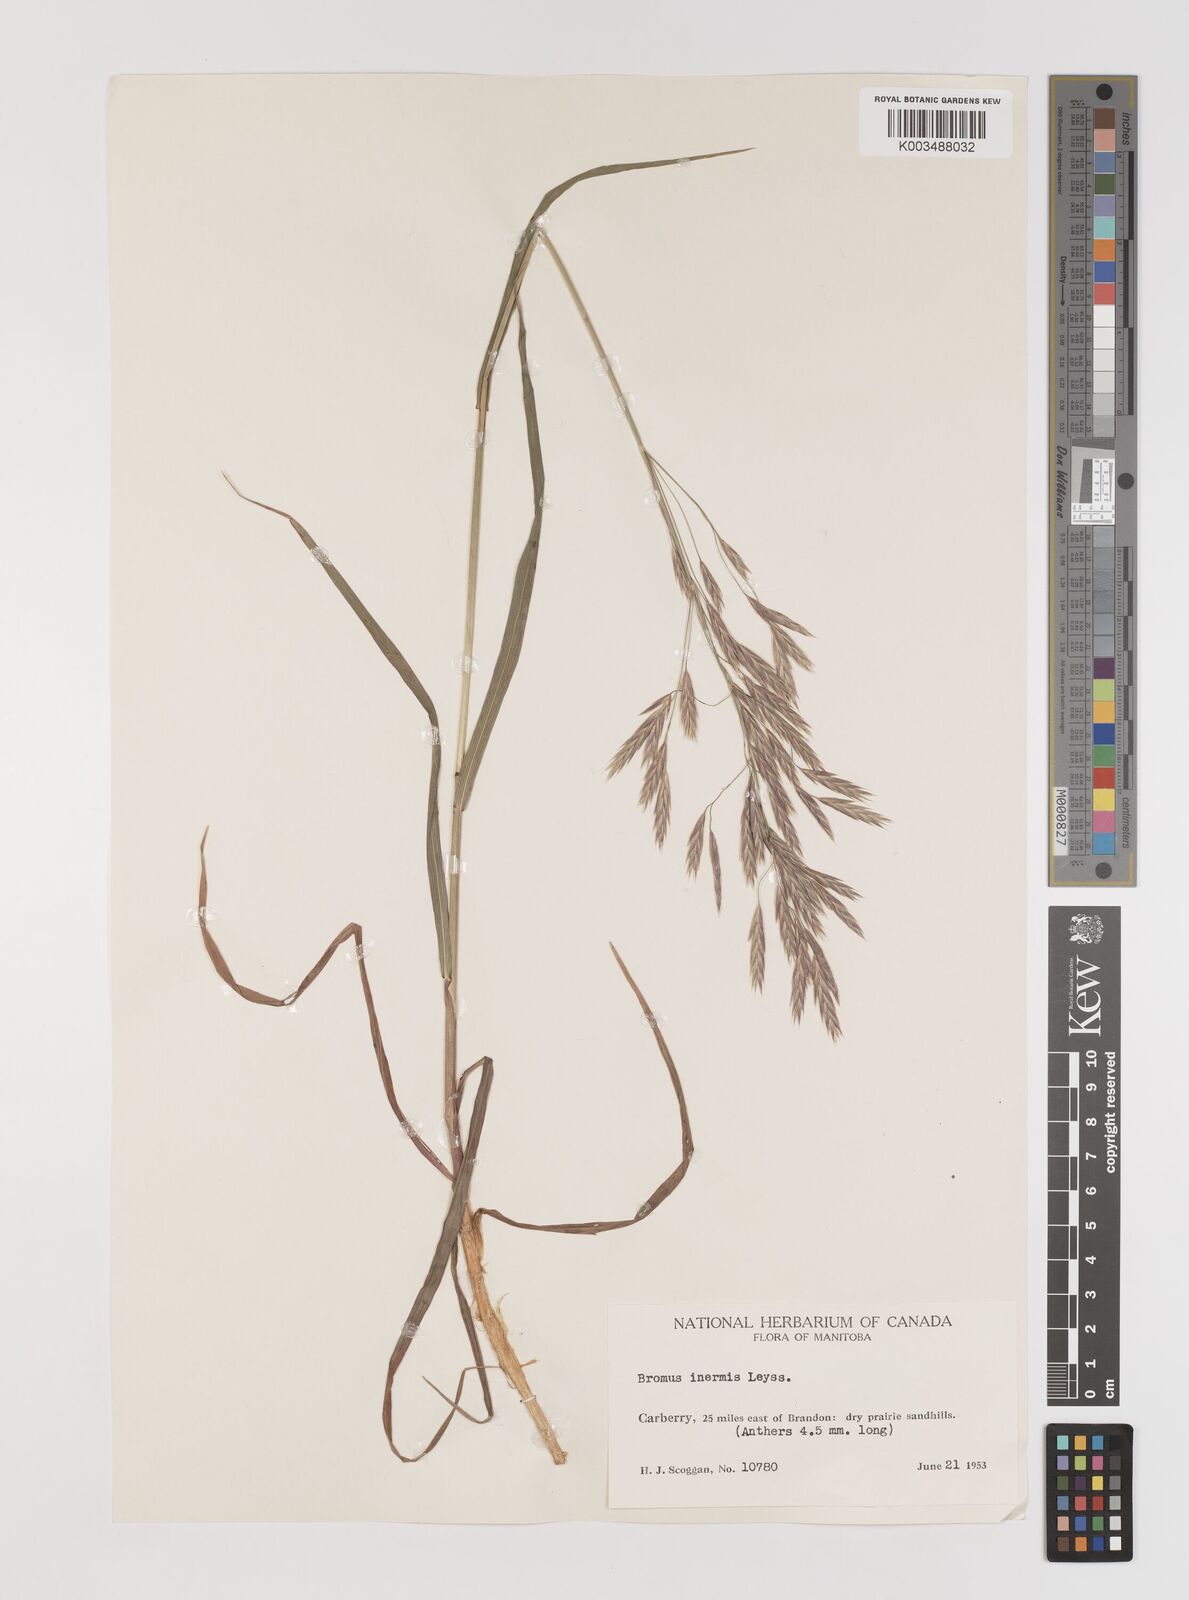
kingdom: Plantae
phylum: Tracheophyta
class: Liliopsida
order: Poales
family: Poaceae
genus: Bromus
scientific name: Bromus inermis
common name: Smooth brome
